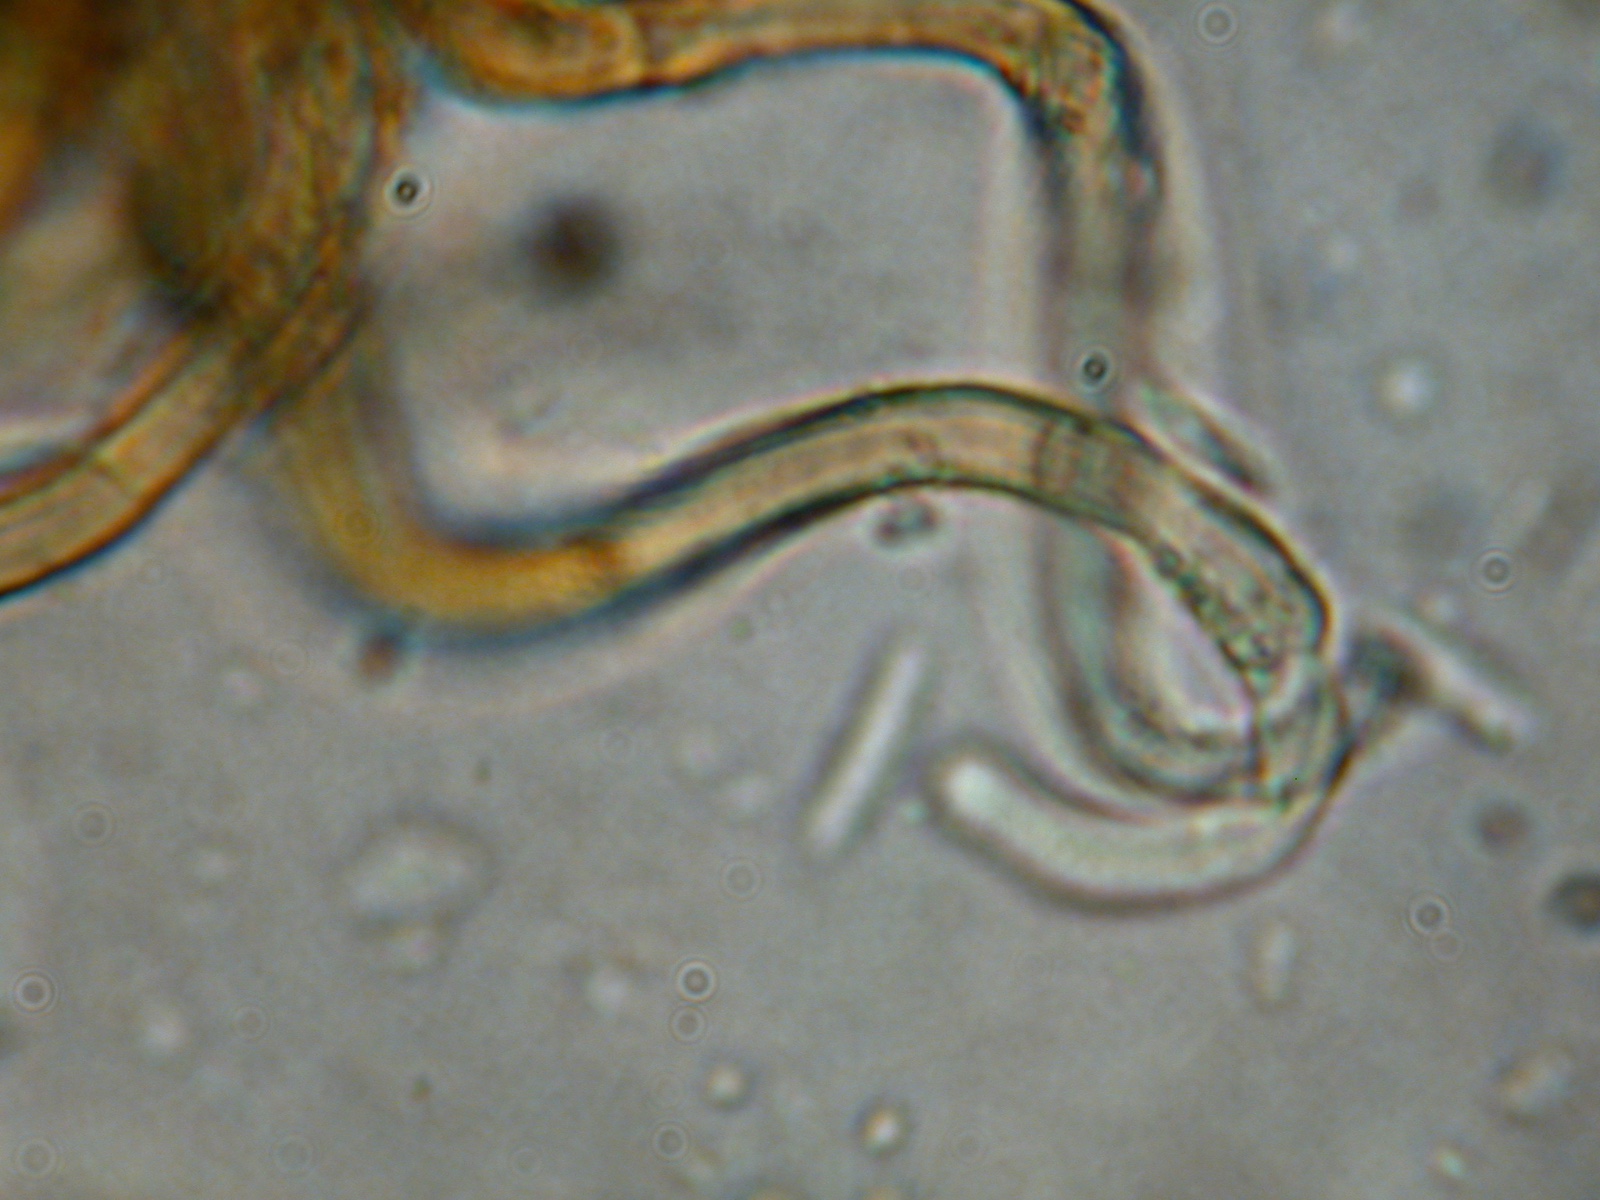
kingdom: Fungi
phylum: Ascomycota
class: Leotiomycetes
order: Helotiales
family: Solenopeziaceae
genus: Lasiobelonium
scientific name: Lasiobelonium lanceolatum
